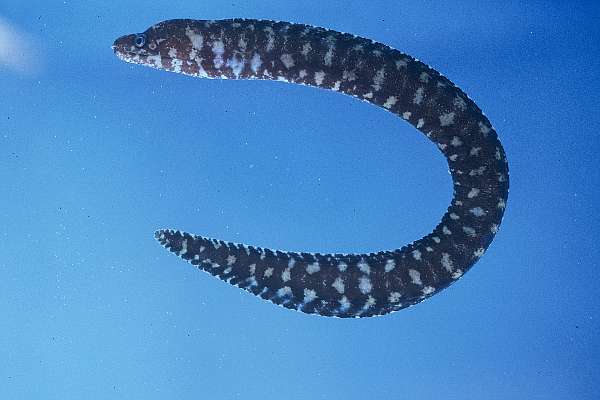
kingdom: Animalia
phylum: Chordata
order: Anguilliformes
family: Muraenidae
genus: Gymnothorax
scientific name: Gymnothorax robinsi
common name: Pygmy moray
